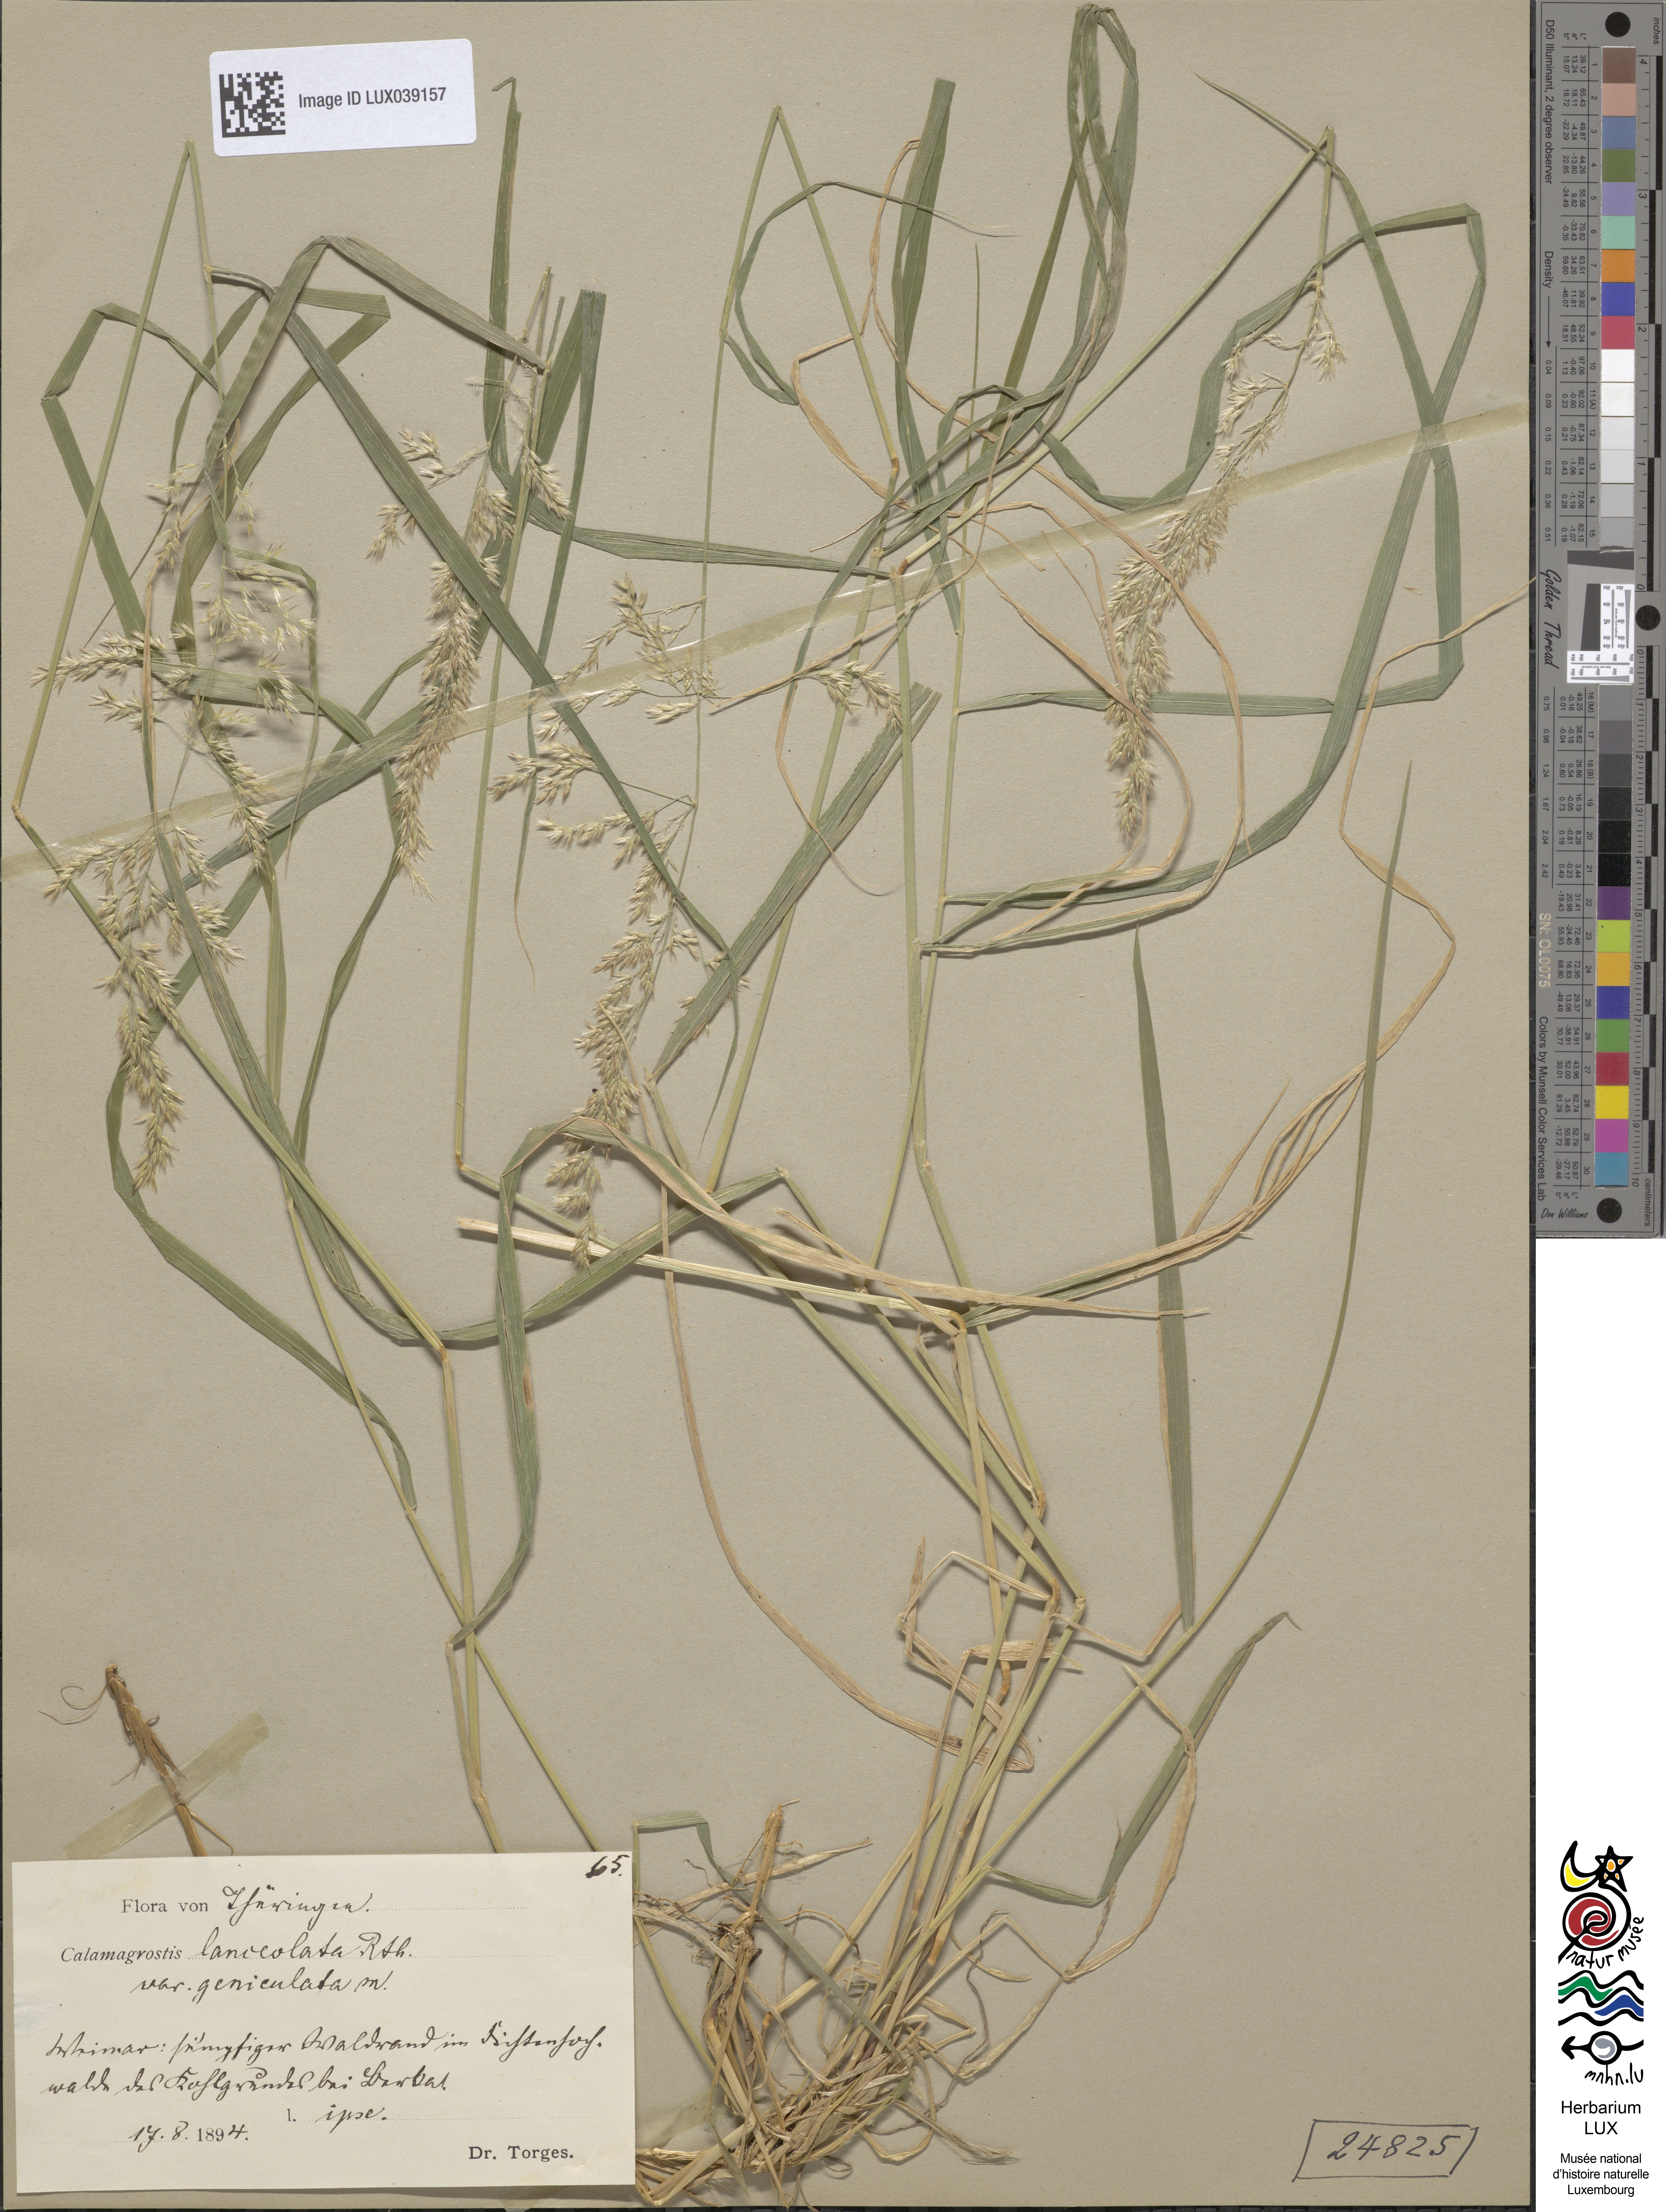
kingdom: Plantae
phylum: Tracheophyta
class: Liliopsida
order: Poales
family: Poaceae
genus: Calamagrostis
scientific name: Calamagrostis canescens
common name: Purple small-reed
